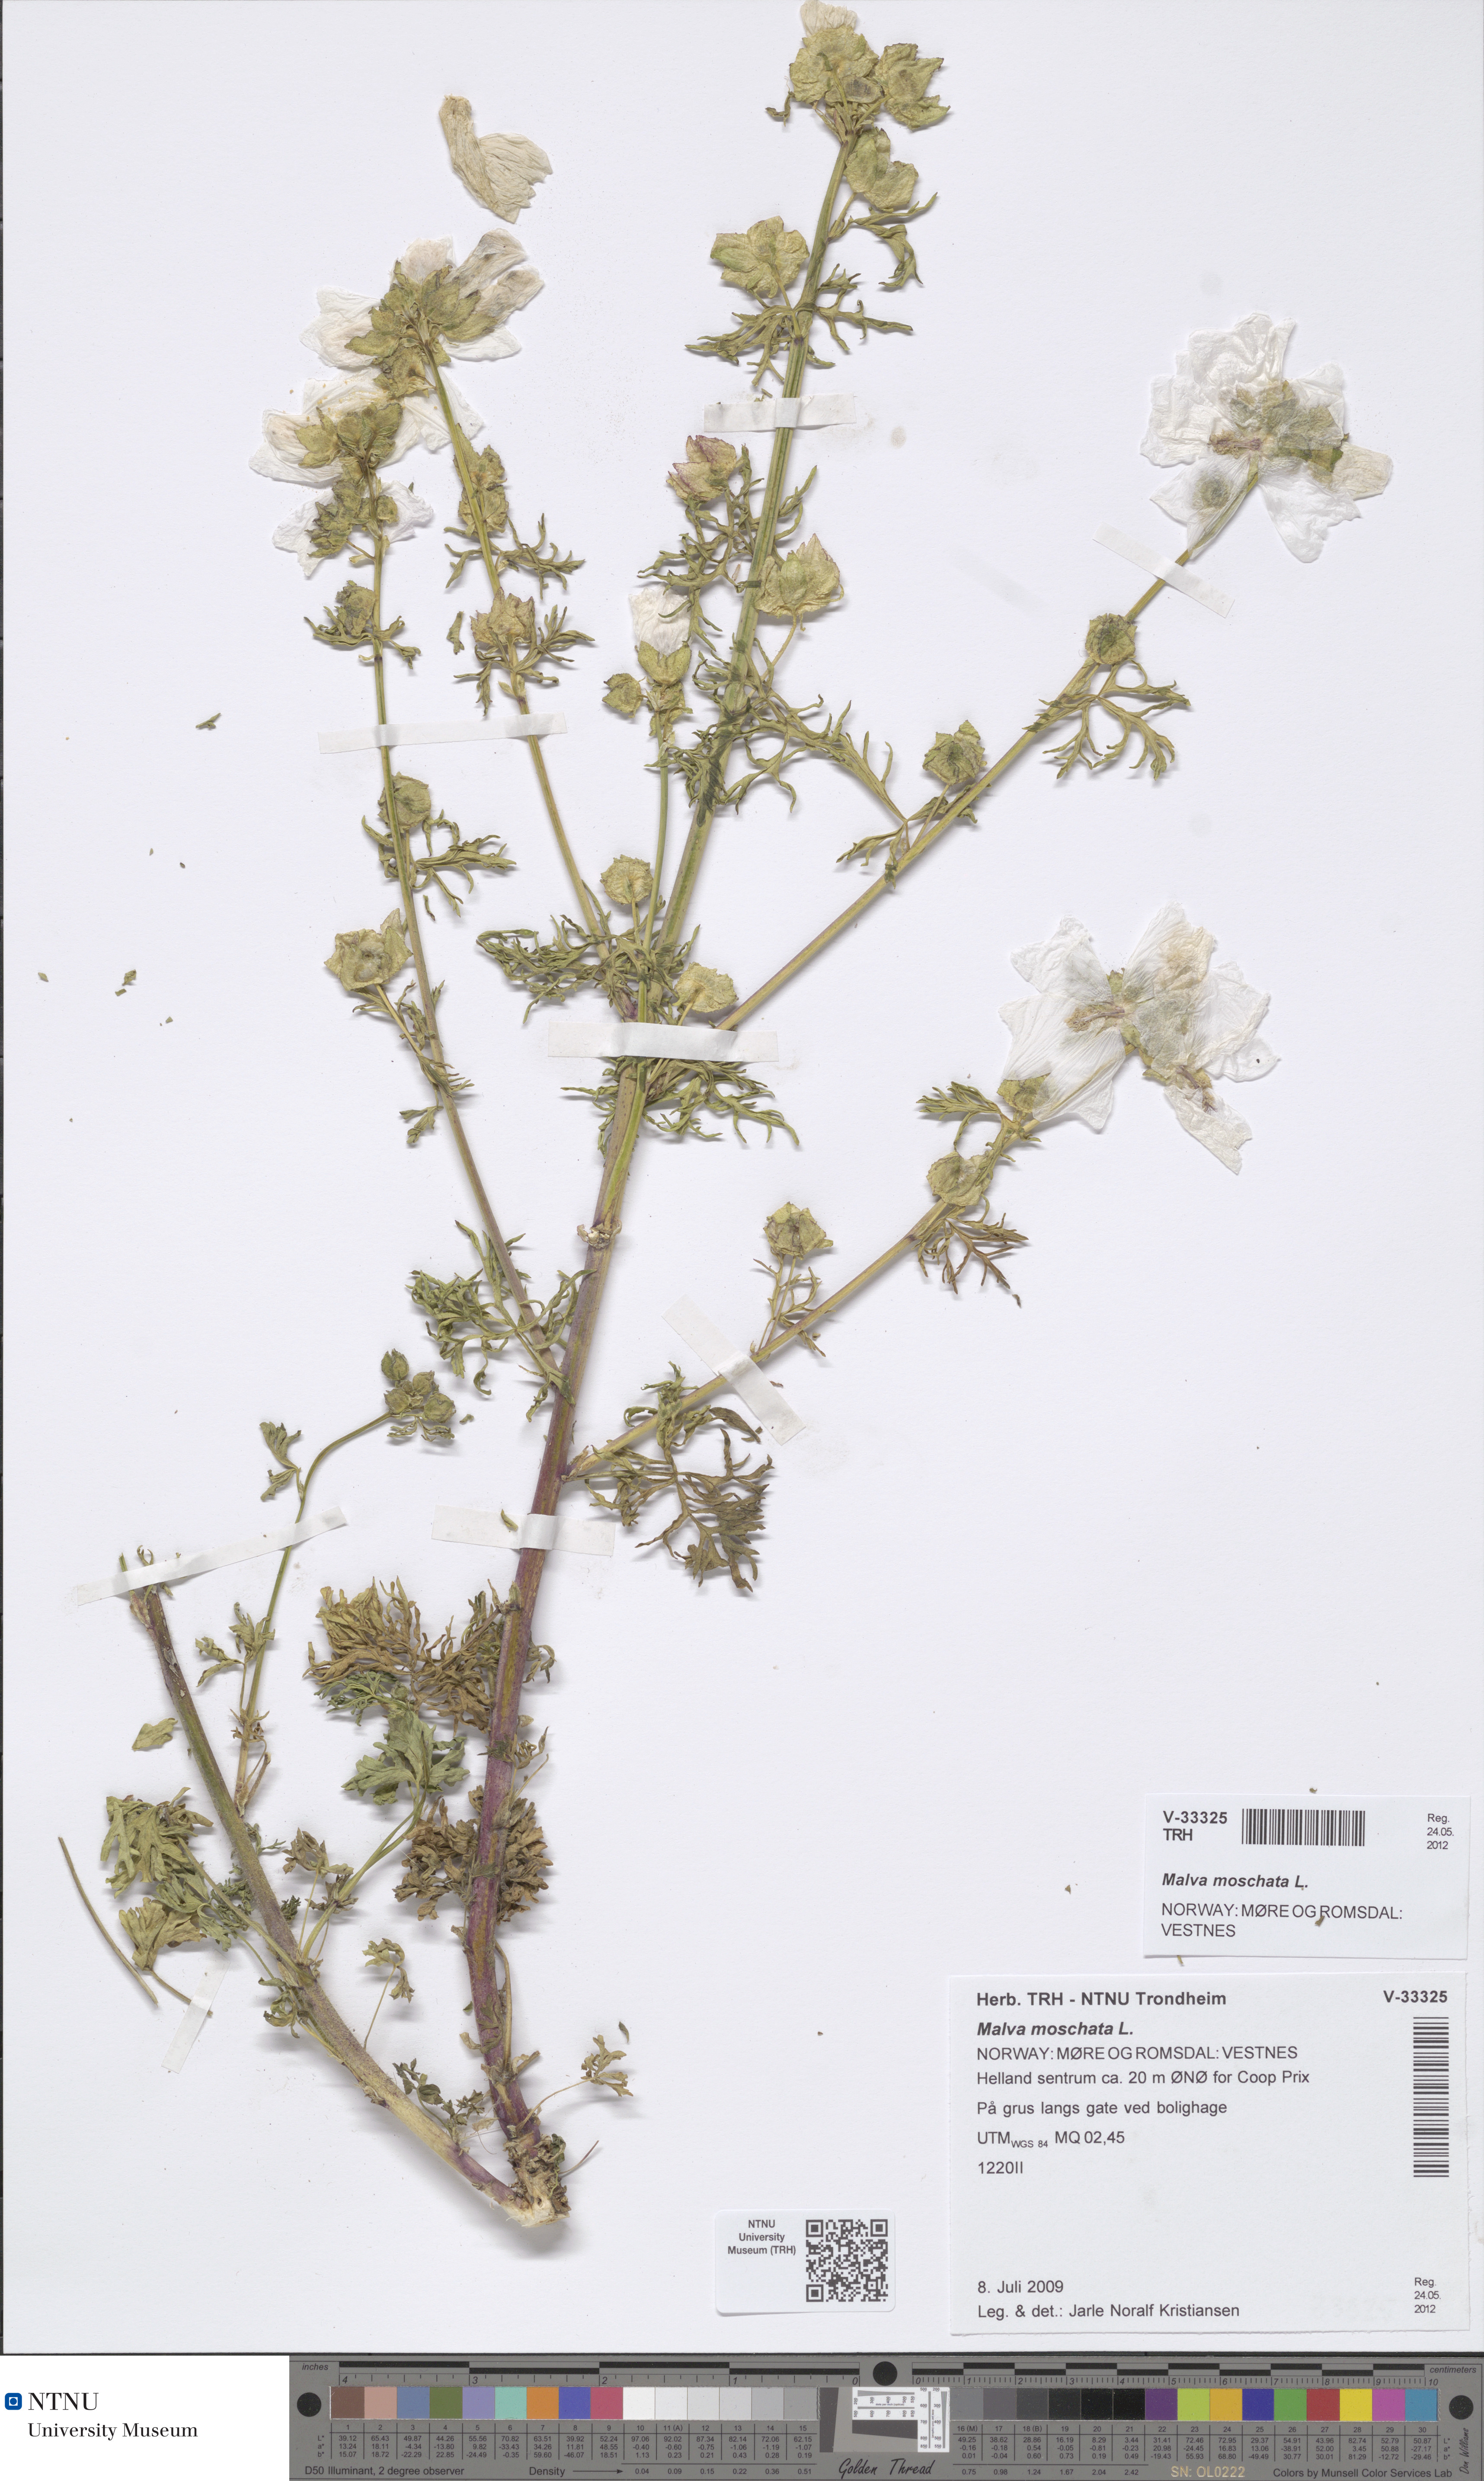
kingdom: Plantae
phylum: Tracheophyta
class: Magnoliopsida
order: Malvales
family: Malvaceae
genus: Malva
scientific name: Malva moschata
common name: Musk mallow
